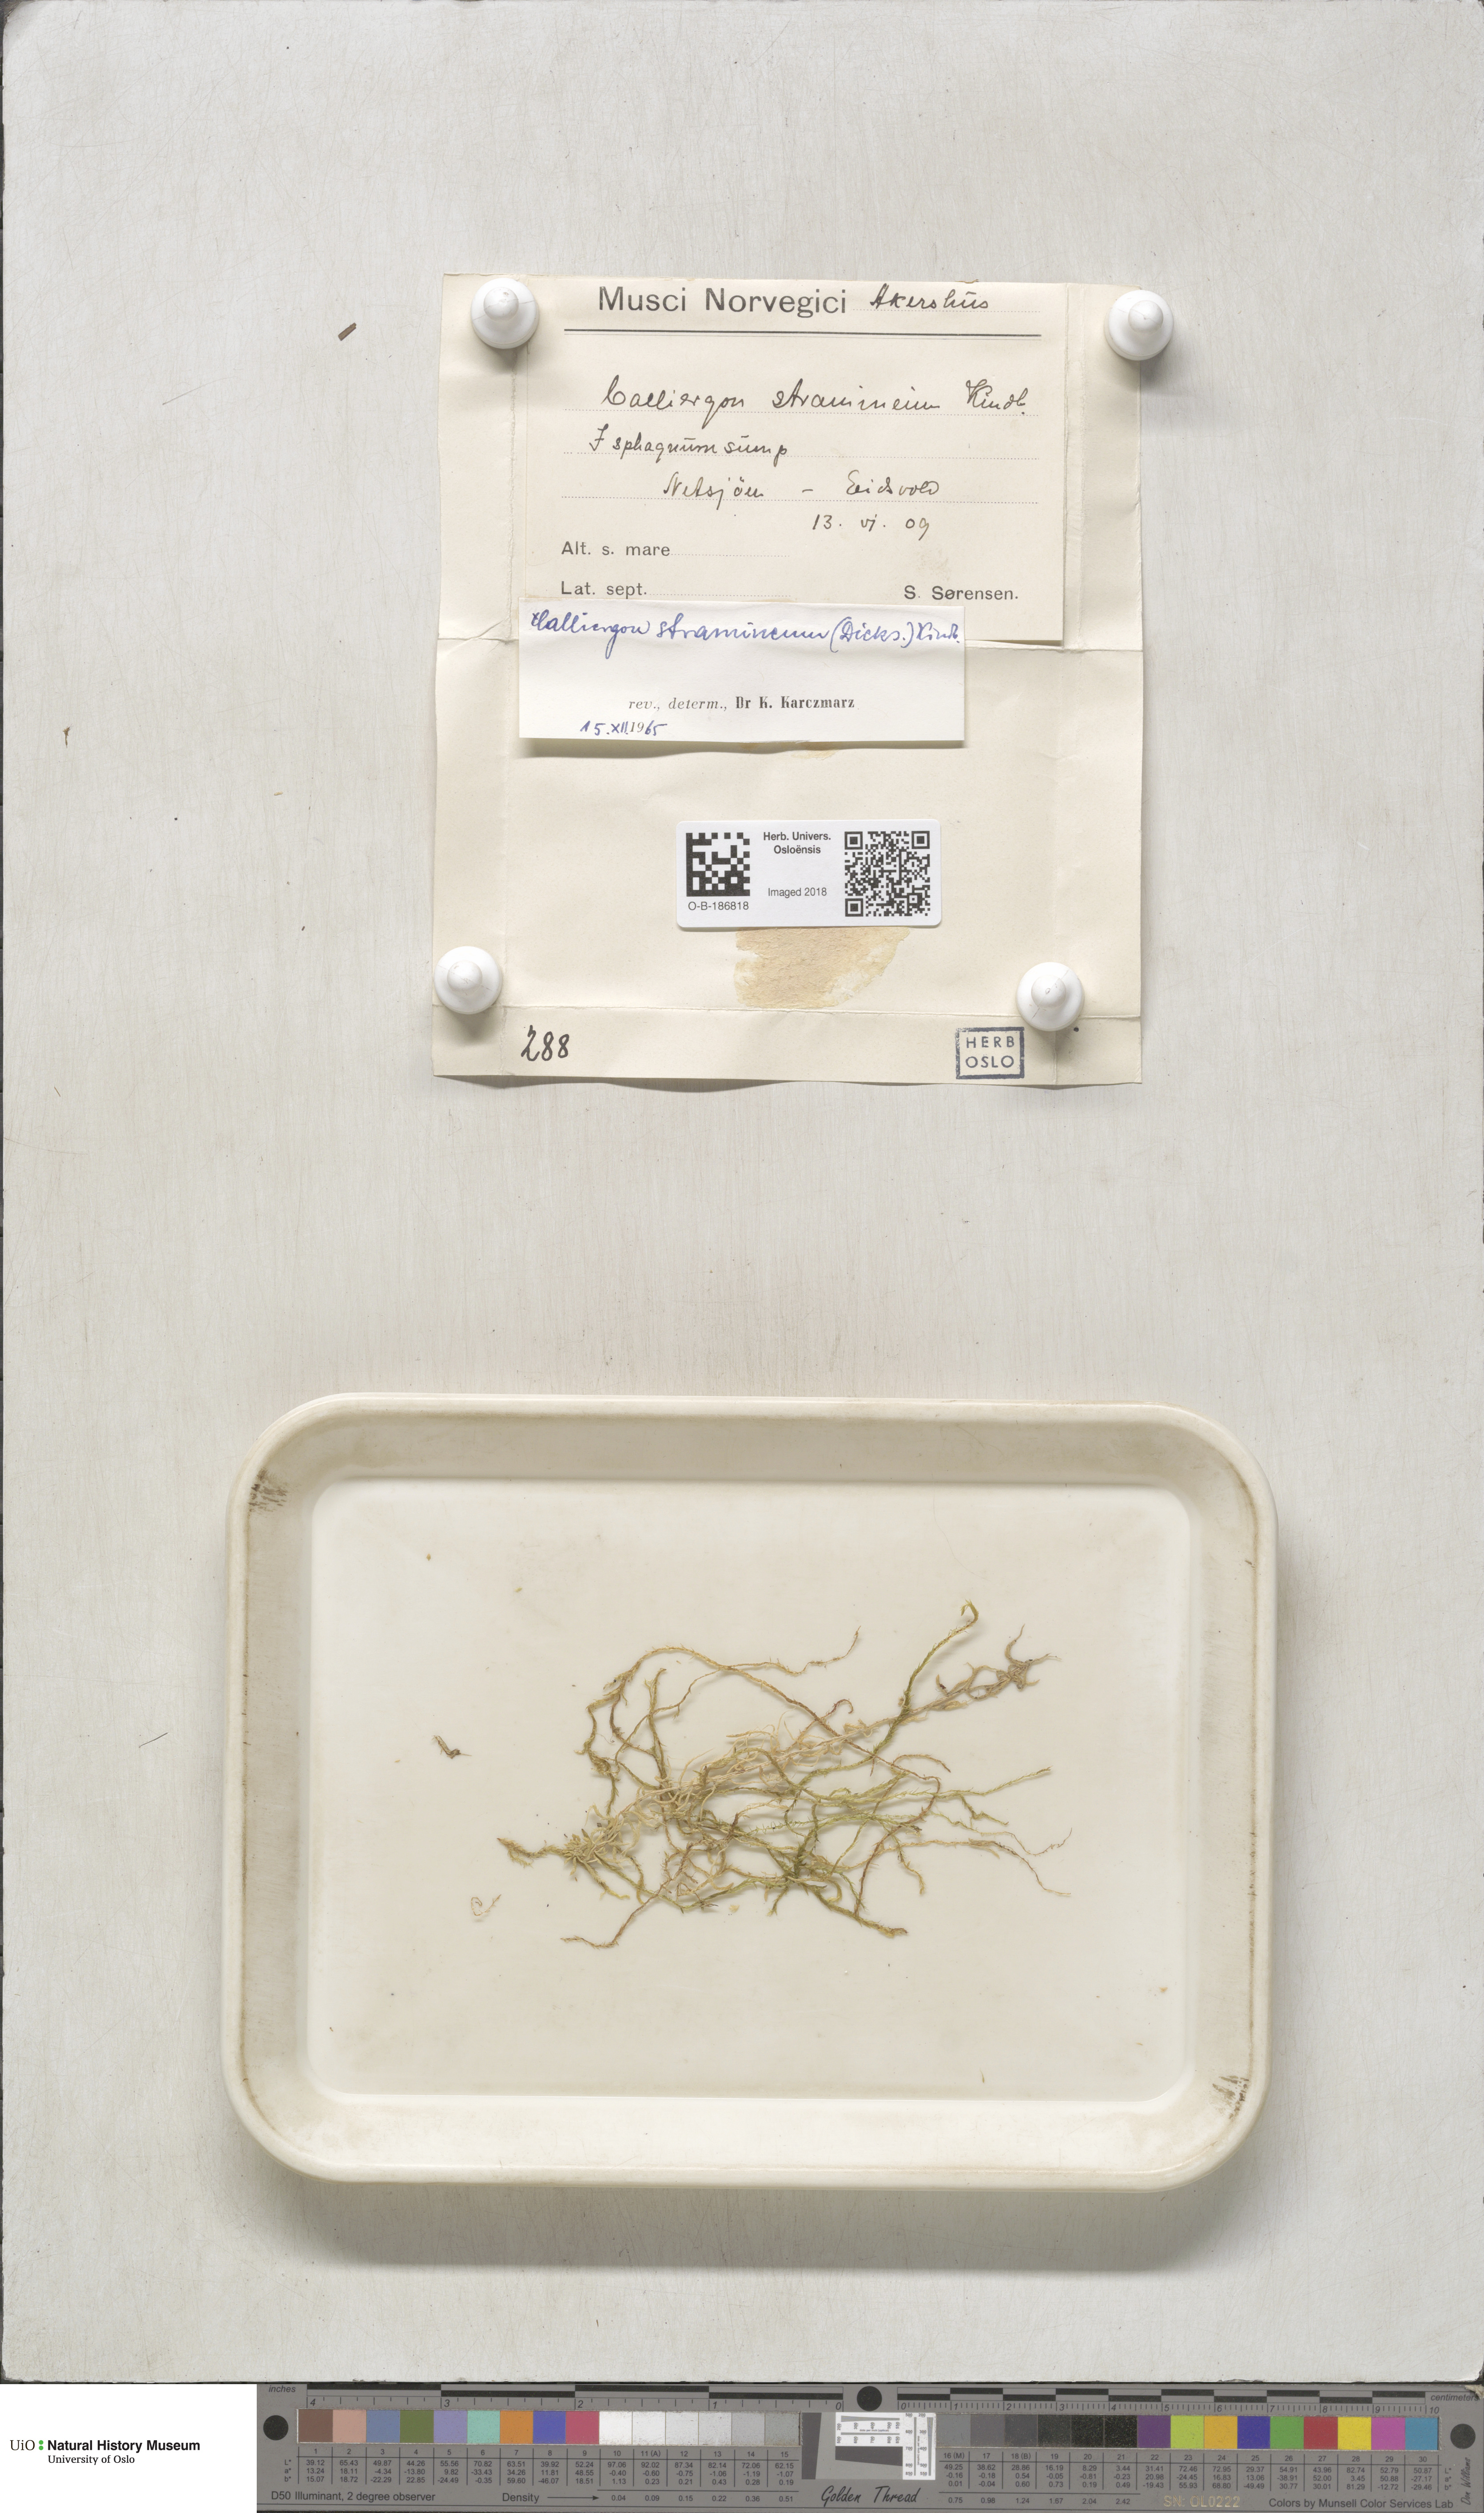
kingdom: Plantae
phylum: Bryophyta
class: Bryopsida
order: Hypnales
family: Calliergonaceae
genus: Straminergon
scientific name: Straminergon stramineum
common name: Straw moss
